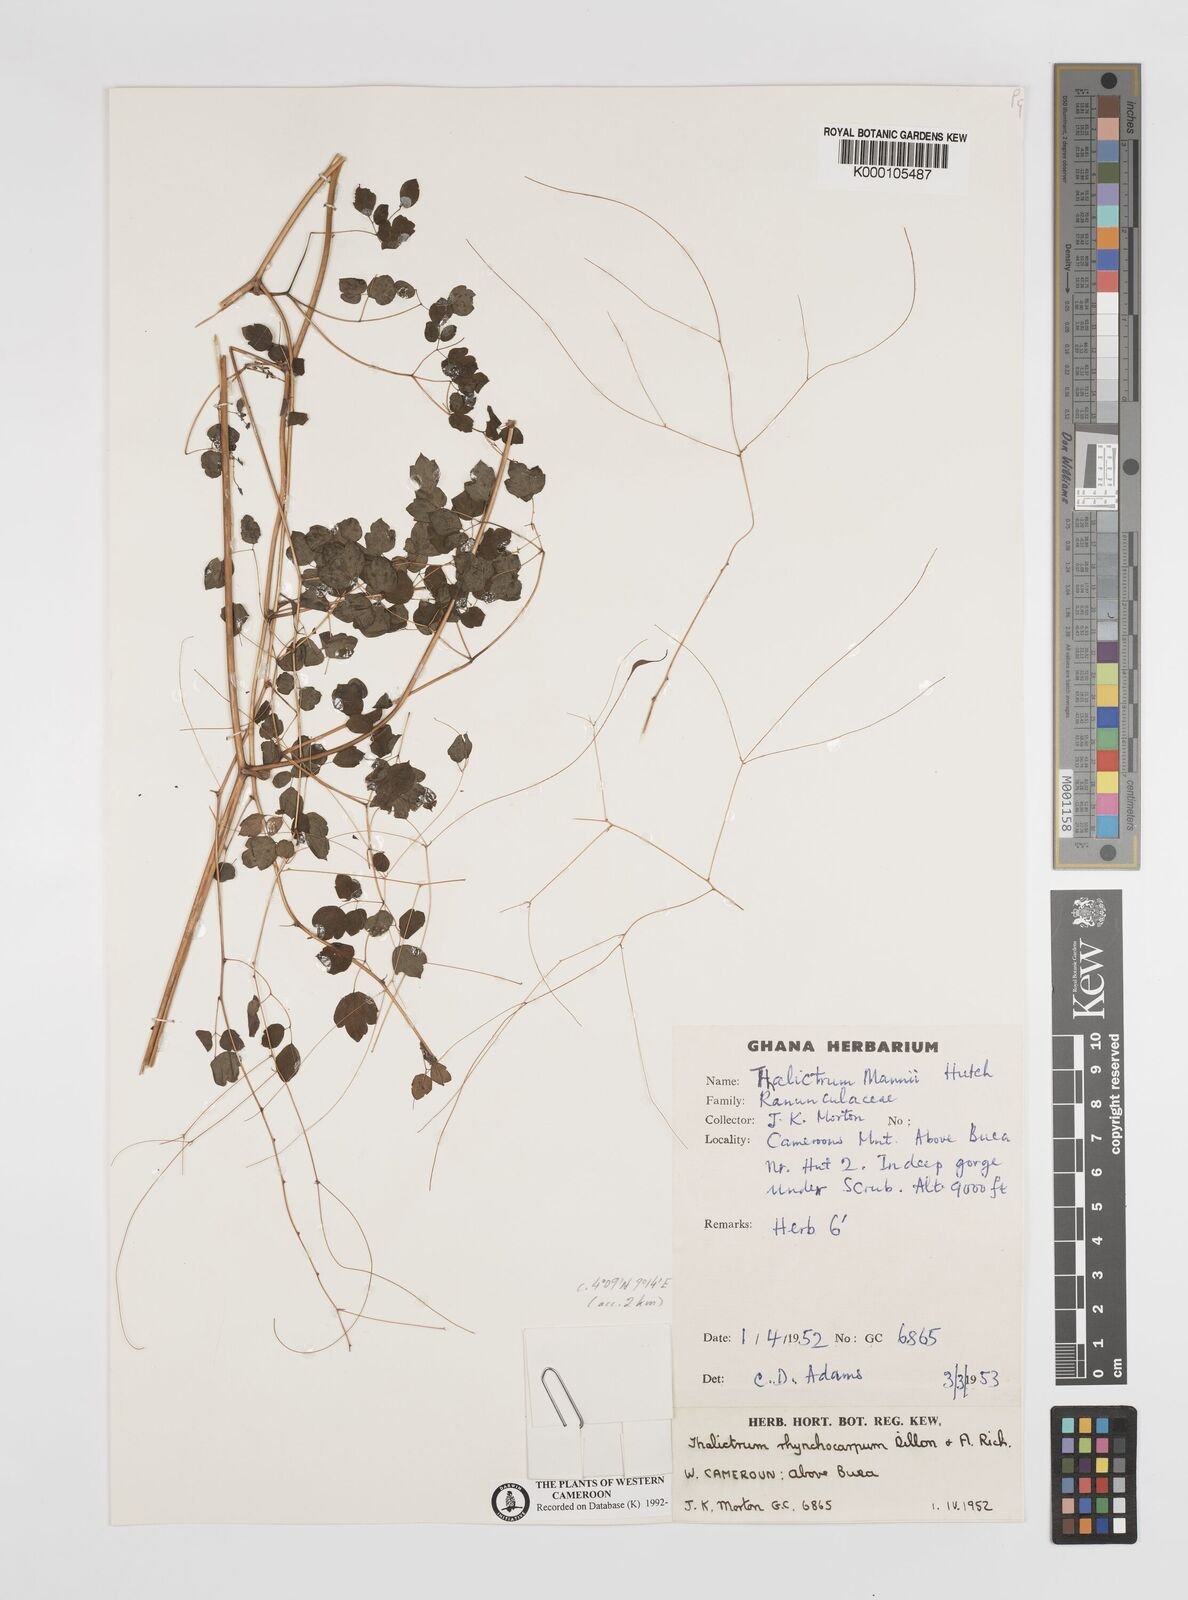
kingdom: Plantae
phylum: Tracheophyta
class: Magnoliopsida
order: Ranunculales
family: Ranunculaceae
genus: Thalictrum
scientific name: Thalictrum
